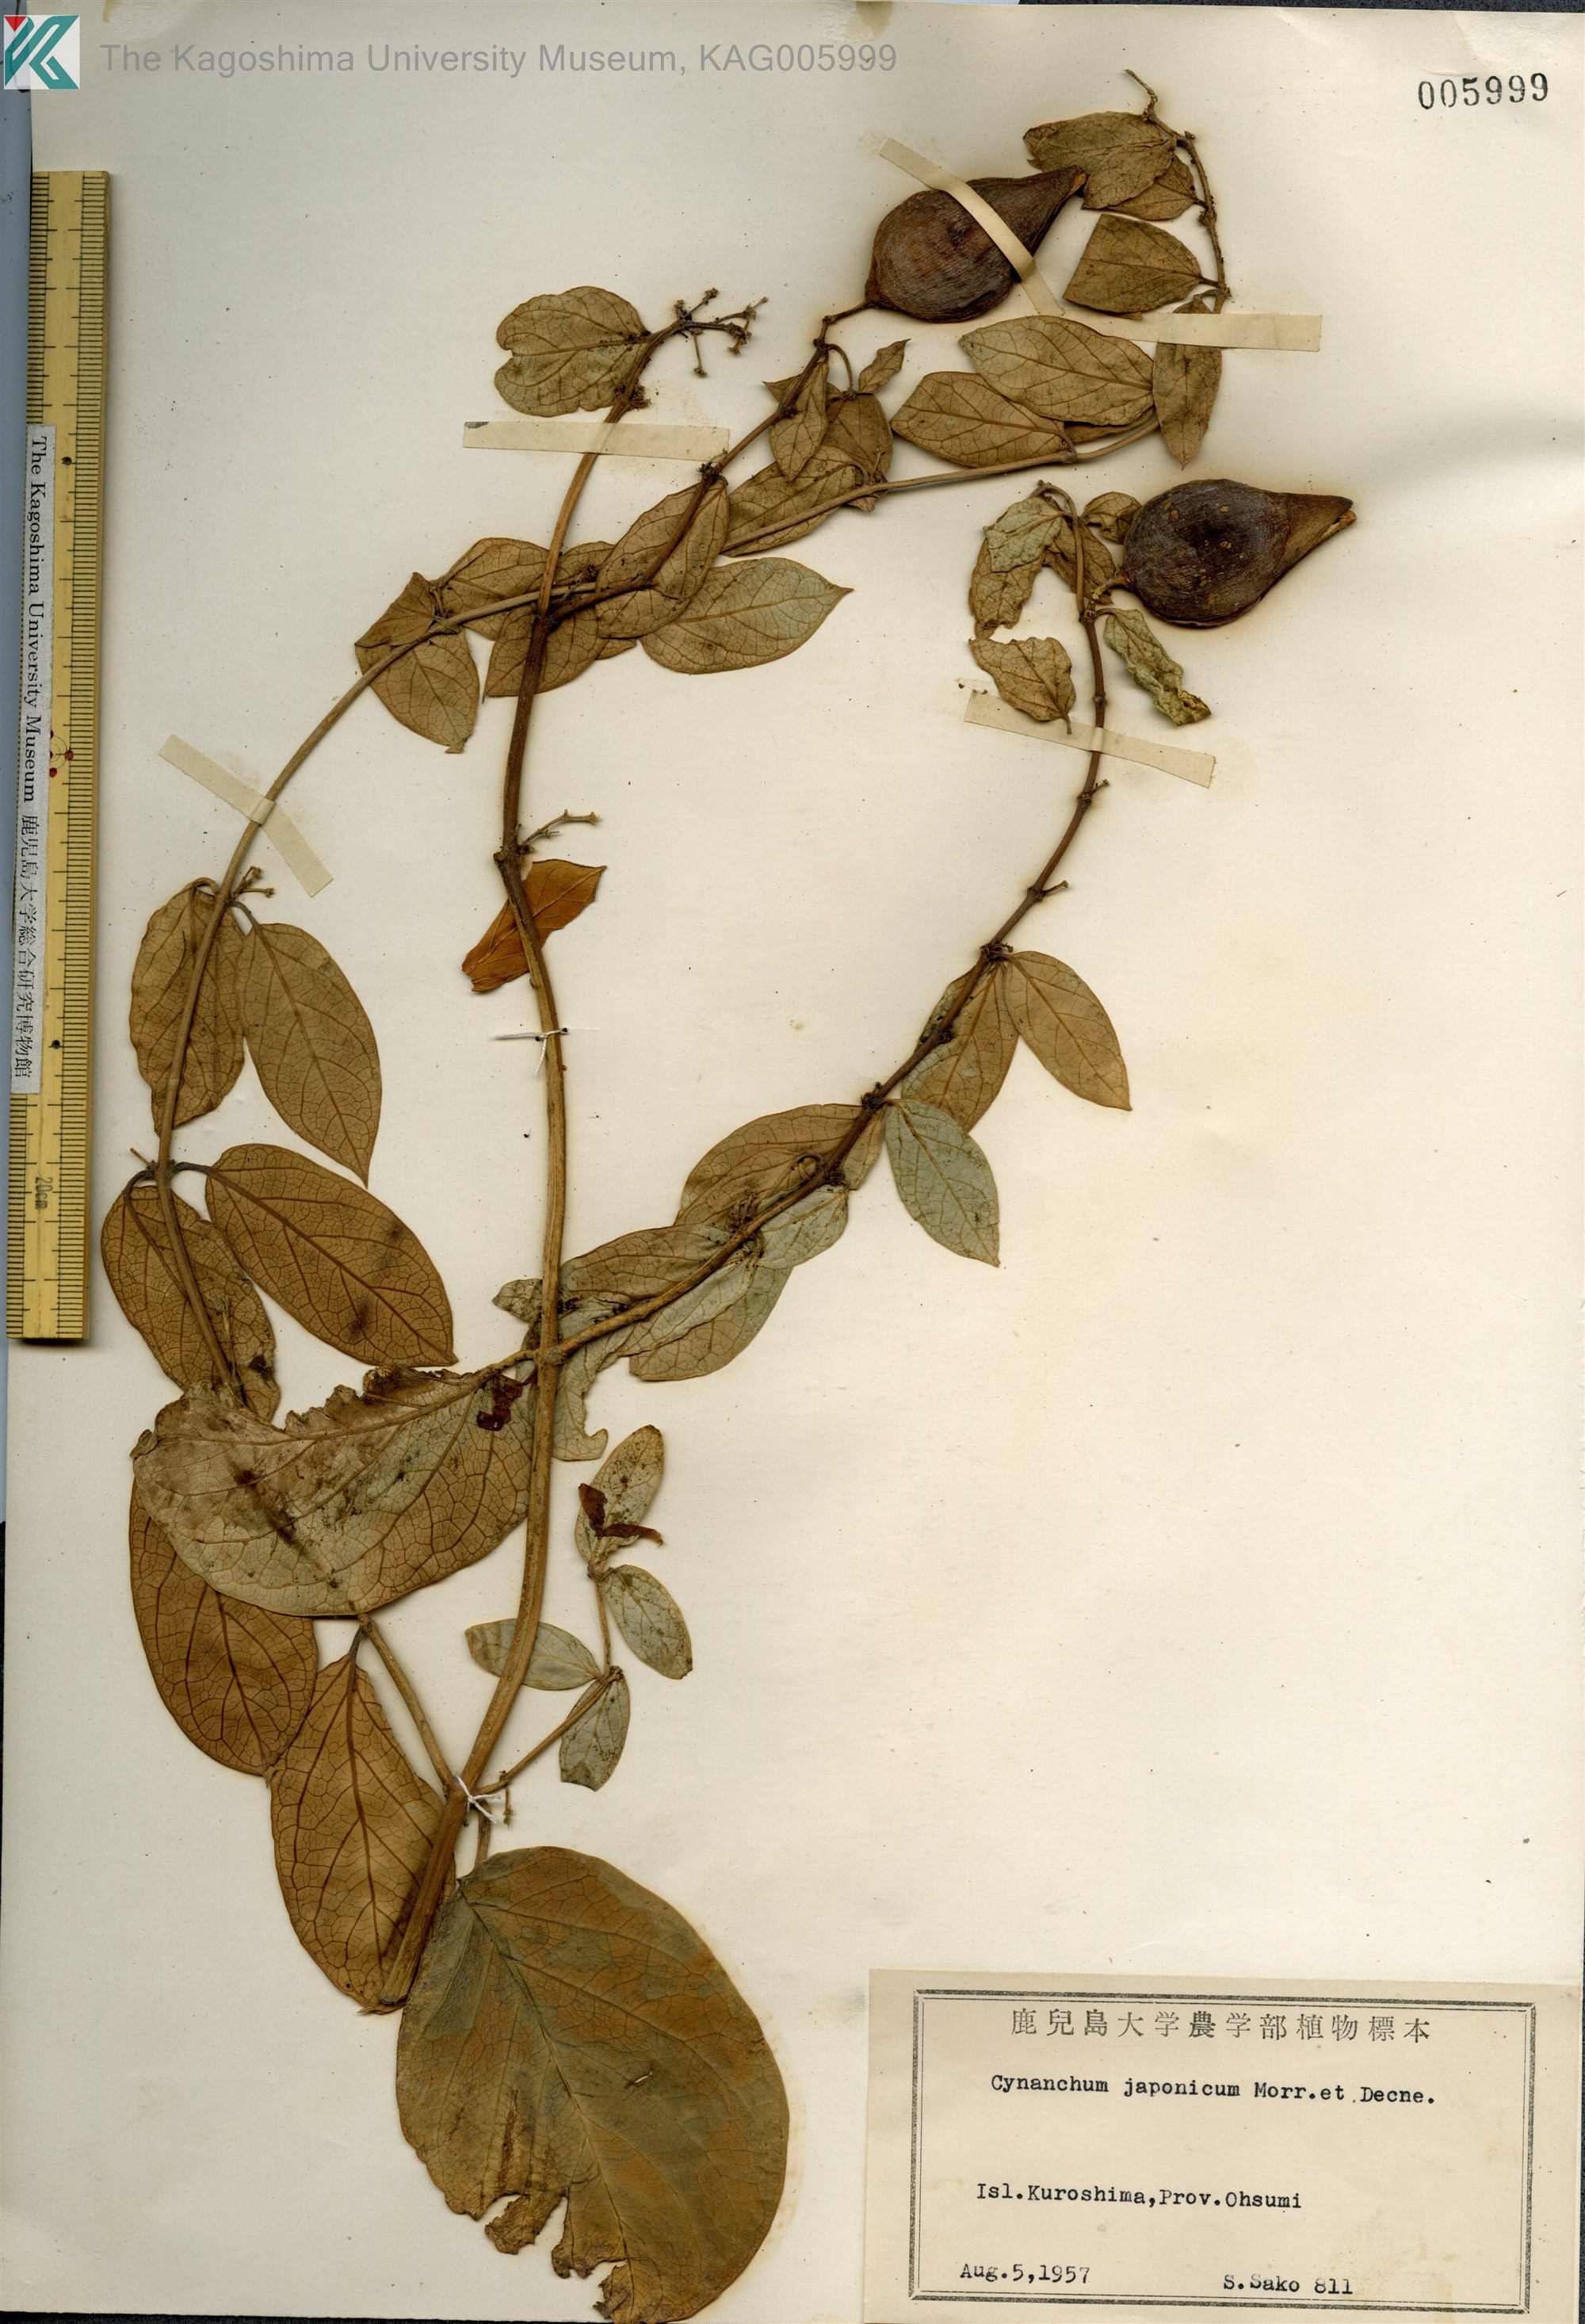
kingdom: Plantae
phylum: Tracheophyta
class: Magnoliopsida
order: Gentianales
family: Apocynaceae
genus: Vincetoxicum
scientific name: Vincetoxicum japonicum
